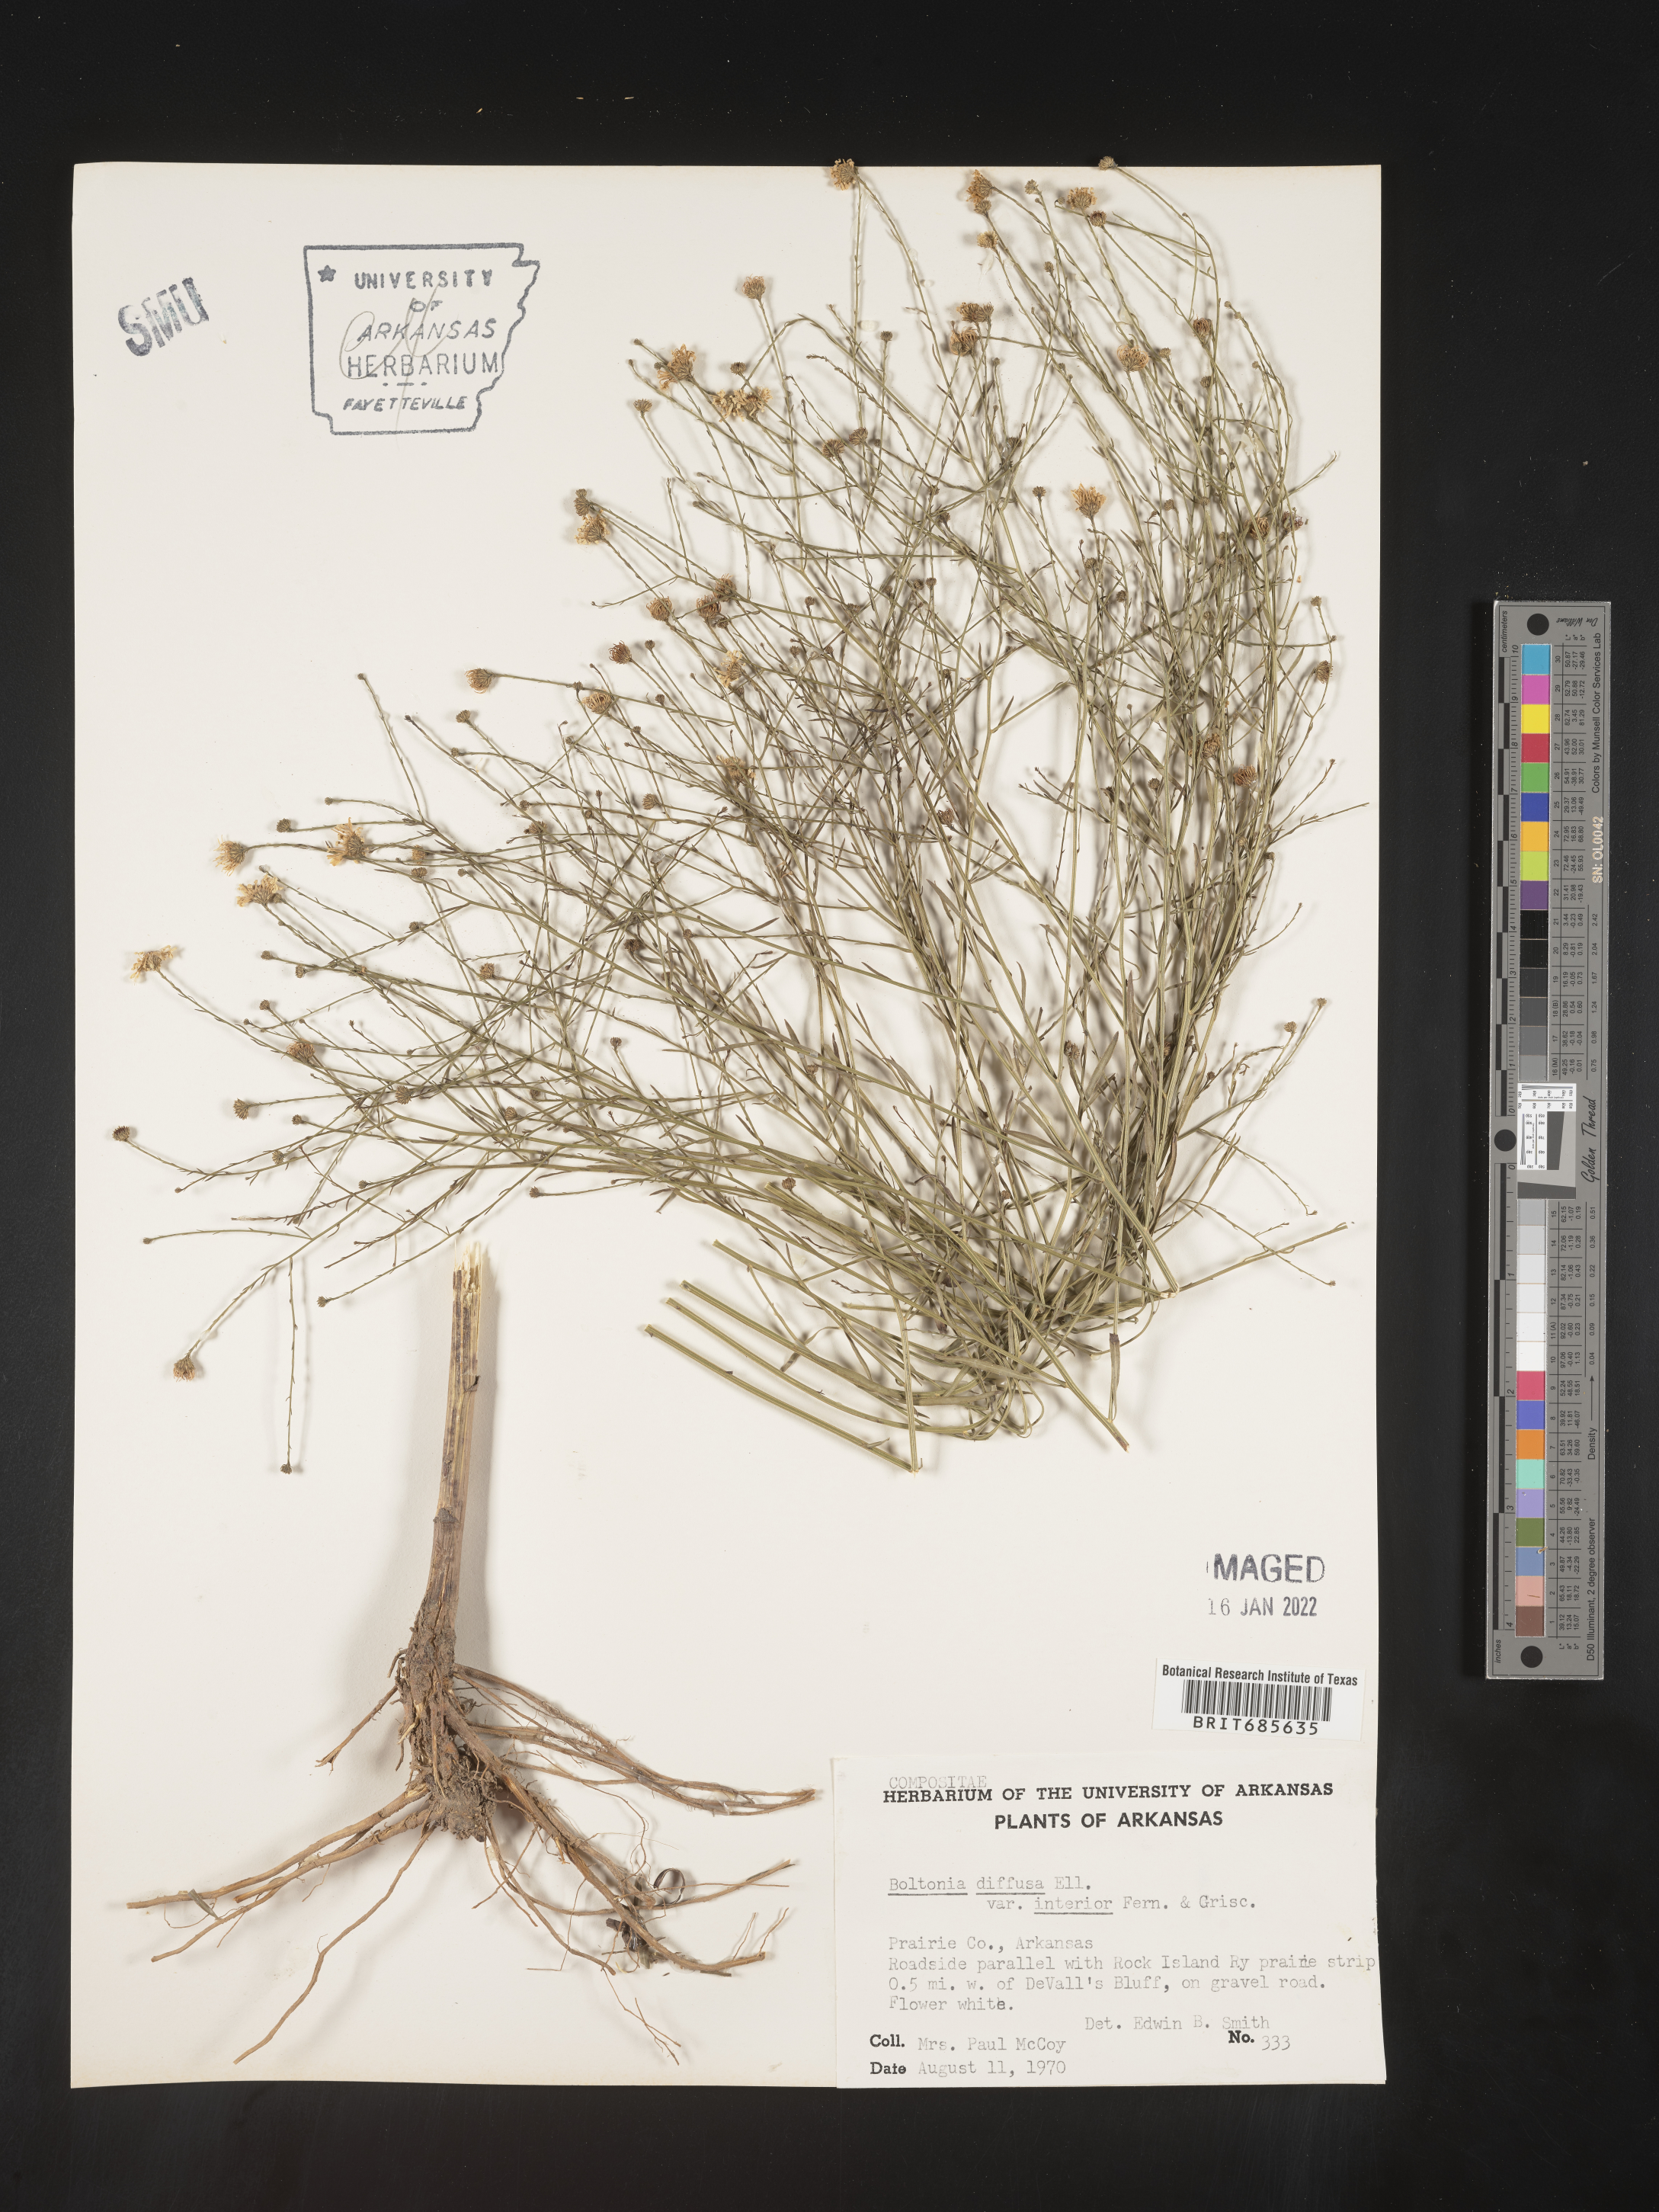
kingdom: Plantae
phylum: Tracheophyta
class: Magnoliopsida
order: Asterales
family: Asteraceae
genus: Boltonia
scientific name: Boltonia diffusa
